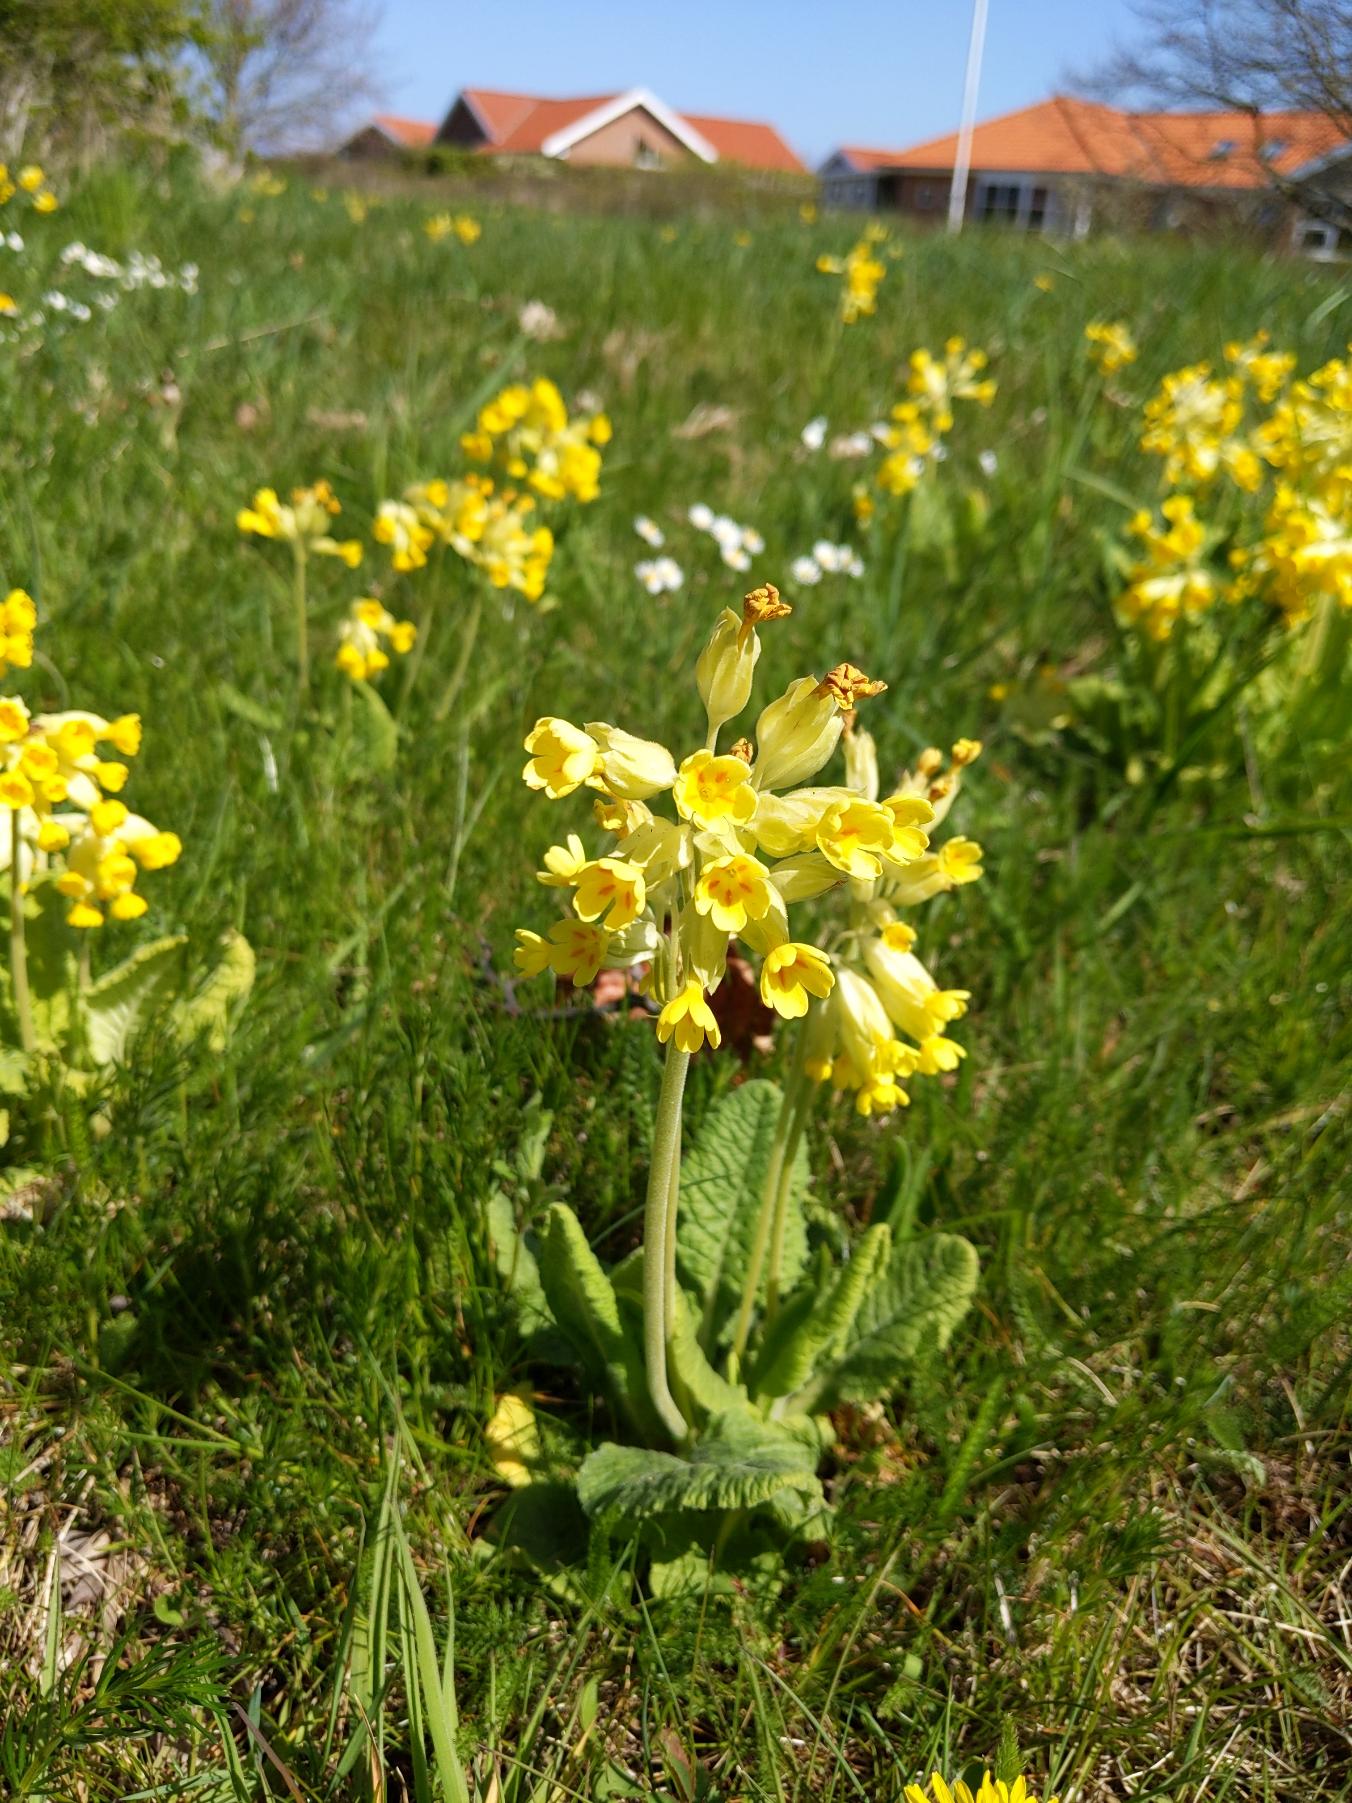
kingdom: Plantae
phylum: Tracheophyta
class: Magnoliopsida
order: Ericales
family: Primulaceae
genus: Primula
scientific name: Primula veris
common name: Hulkravet kodriver
